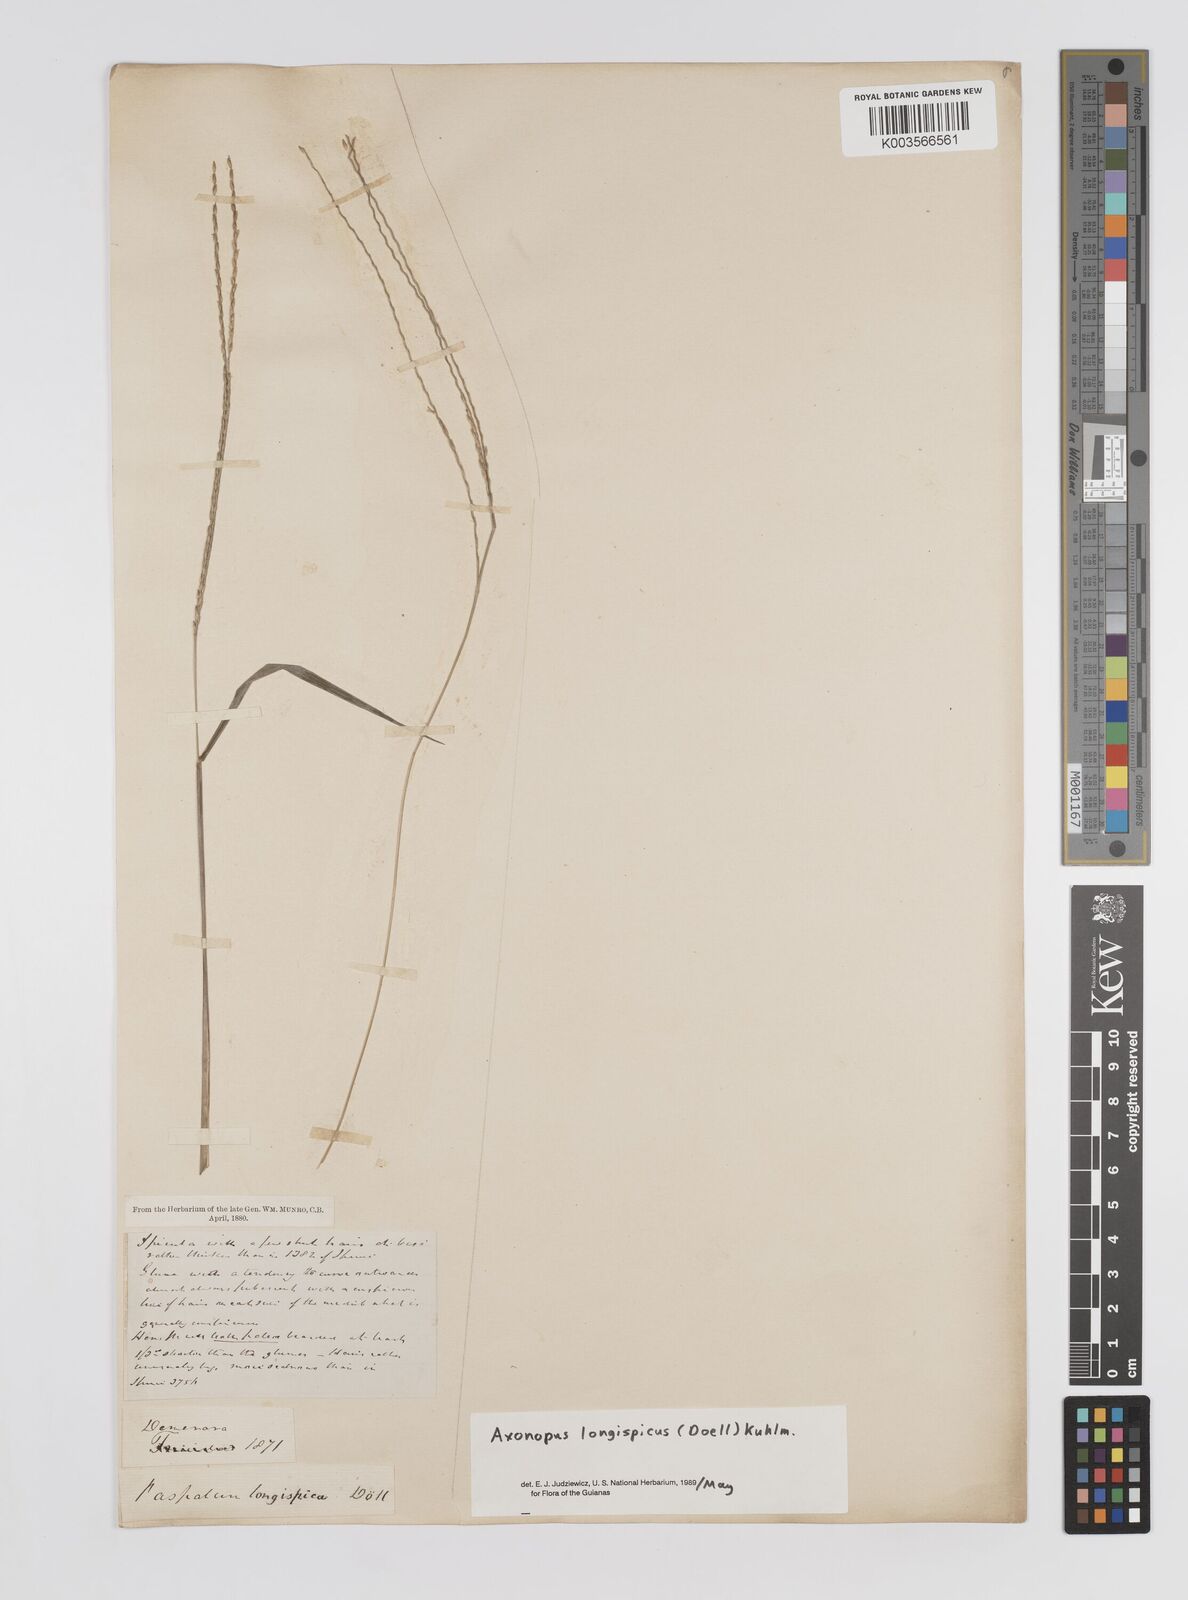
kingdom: Plantae
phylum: Tracheophyta
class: Liliopsida
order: Poales
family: Poaceae
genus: Axonopus
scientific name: Axonopus longispicus
